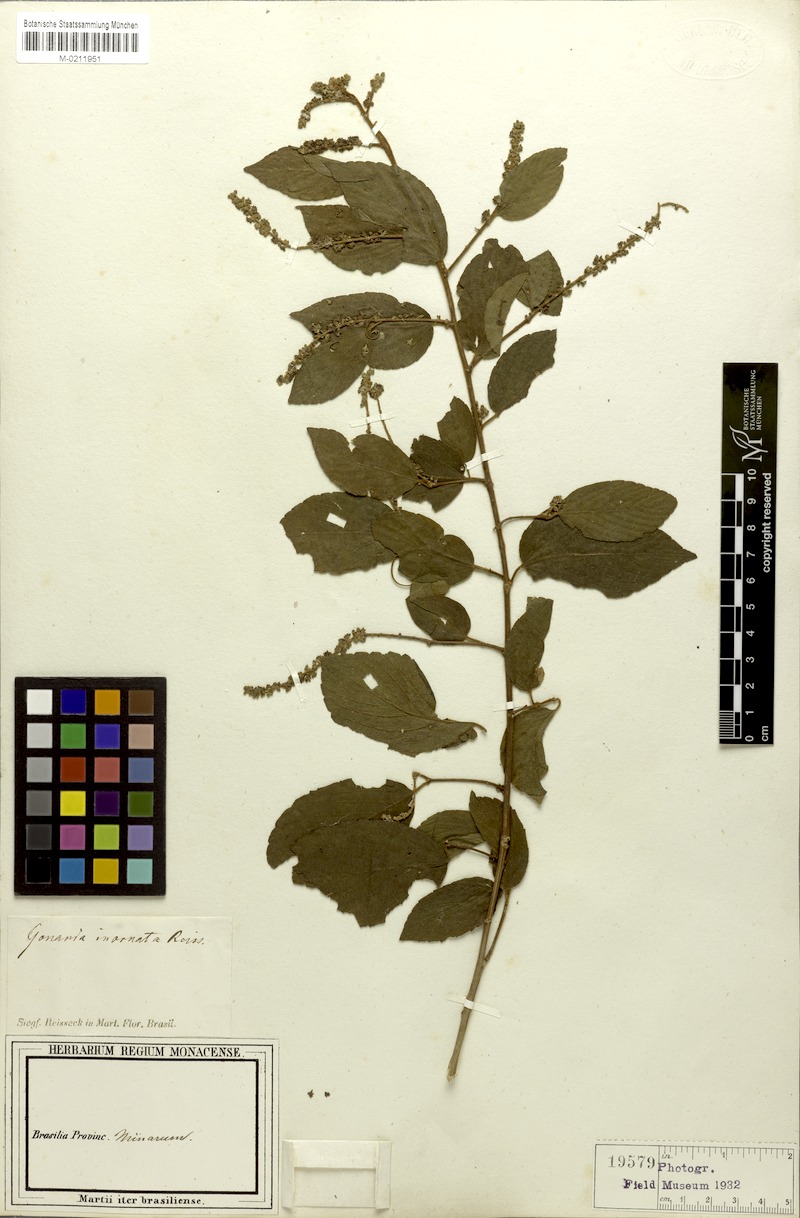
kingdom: Plantae
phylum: Tracheophyta
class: Magnoliopsida
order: Rosales
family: Rhamnaceae
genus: Gouania
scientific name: Gouania inornata
